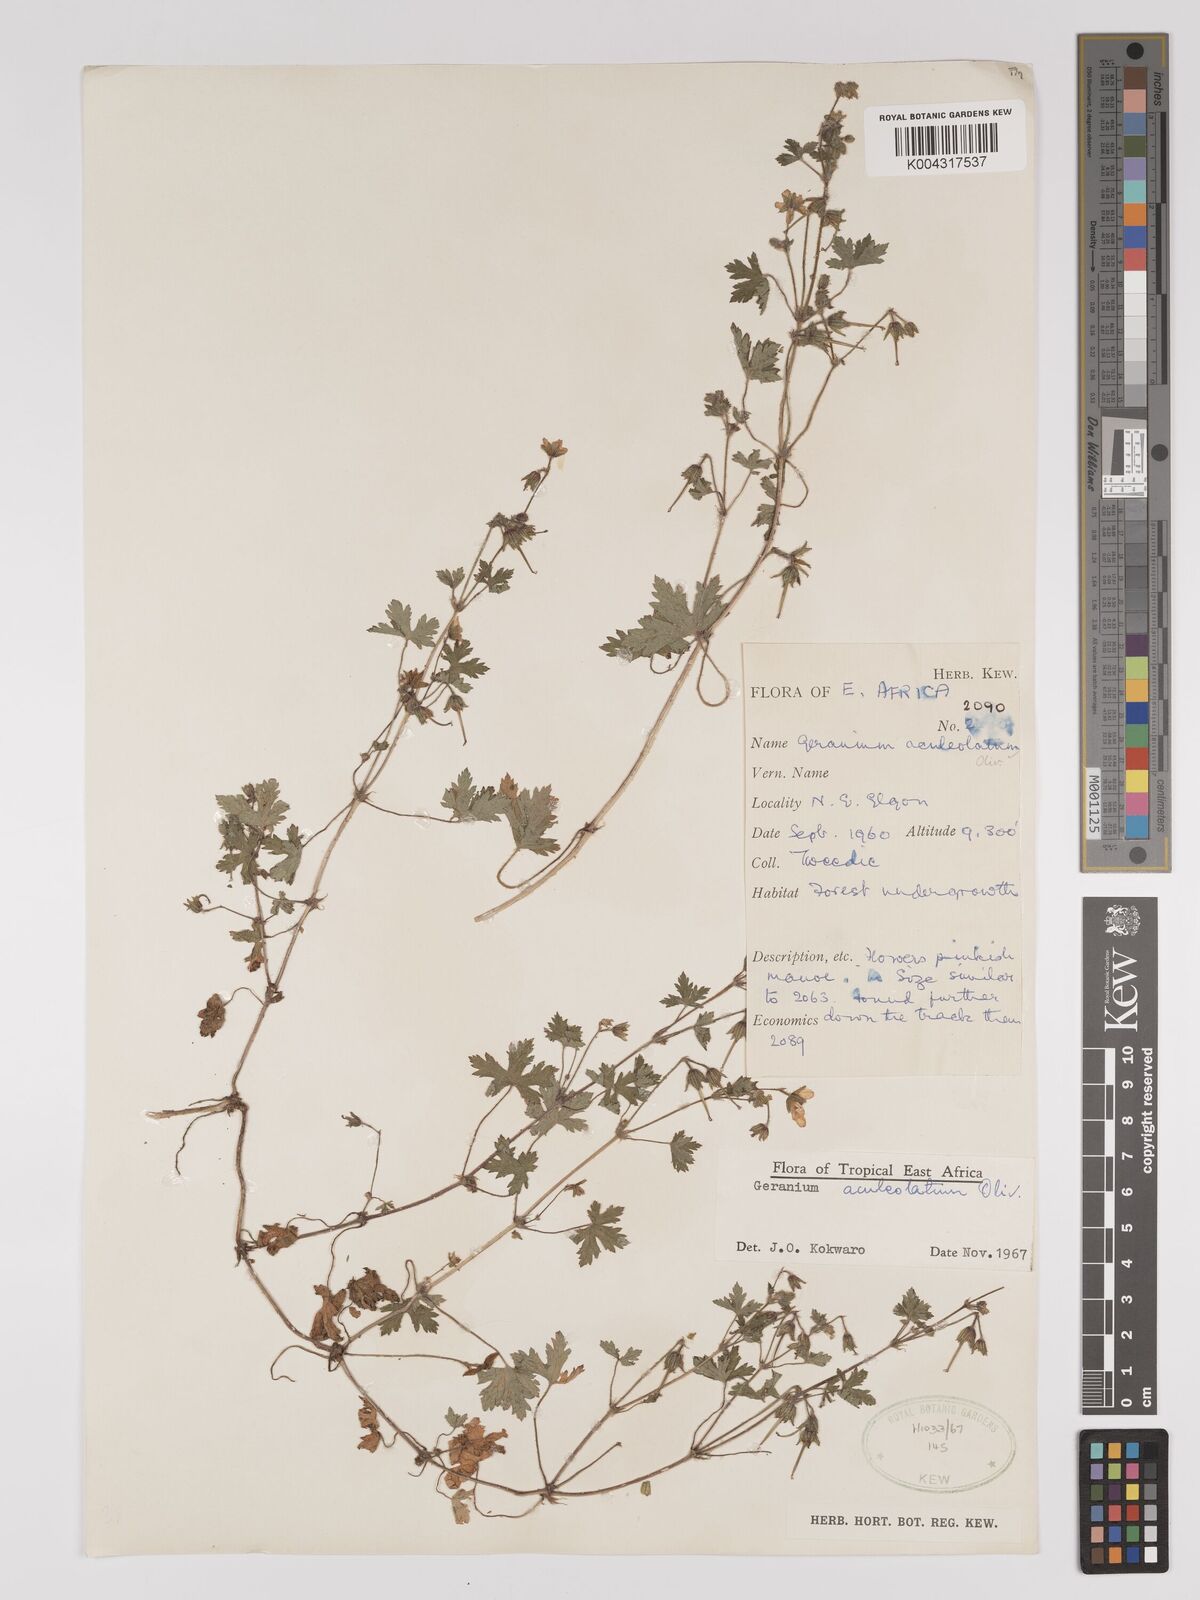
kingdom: Plantae
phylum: Tracheophyta
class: Magnoliopsida
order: Geraniales
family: Geraniaceae
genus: Geranium
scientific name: Geranium aculeolatum
